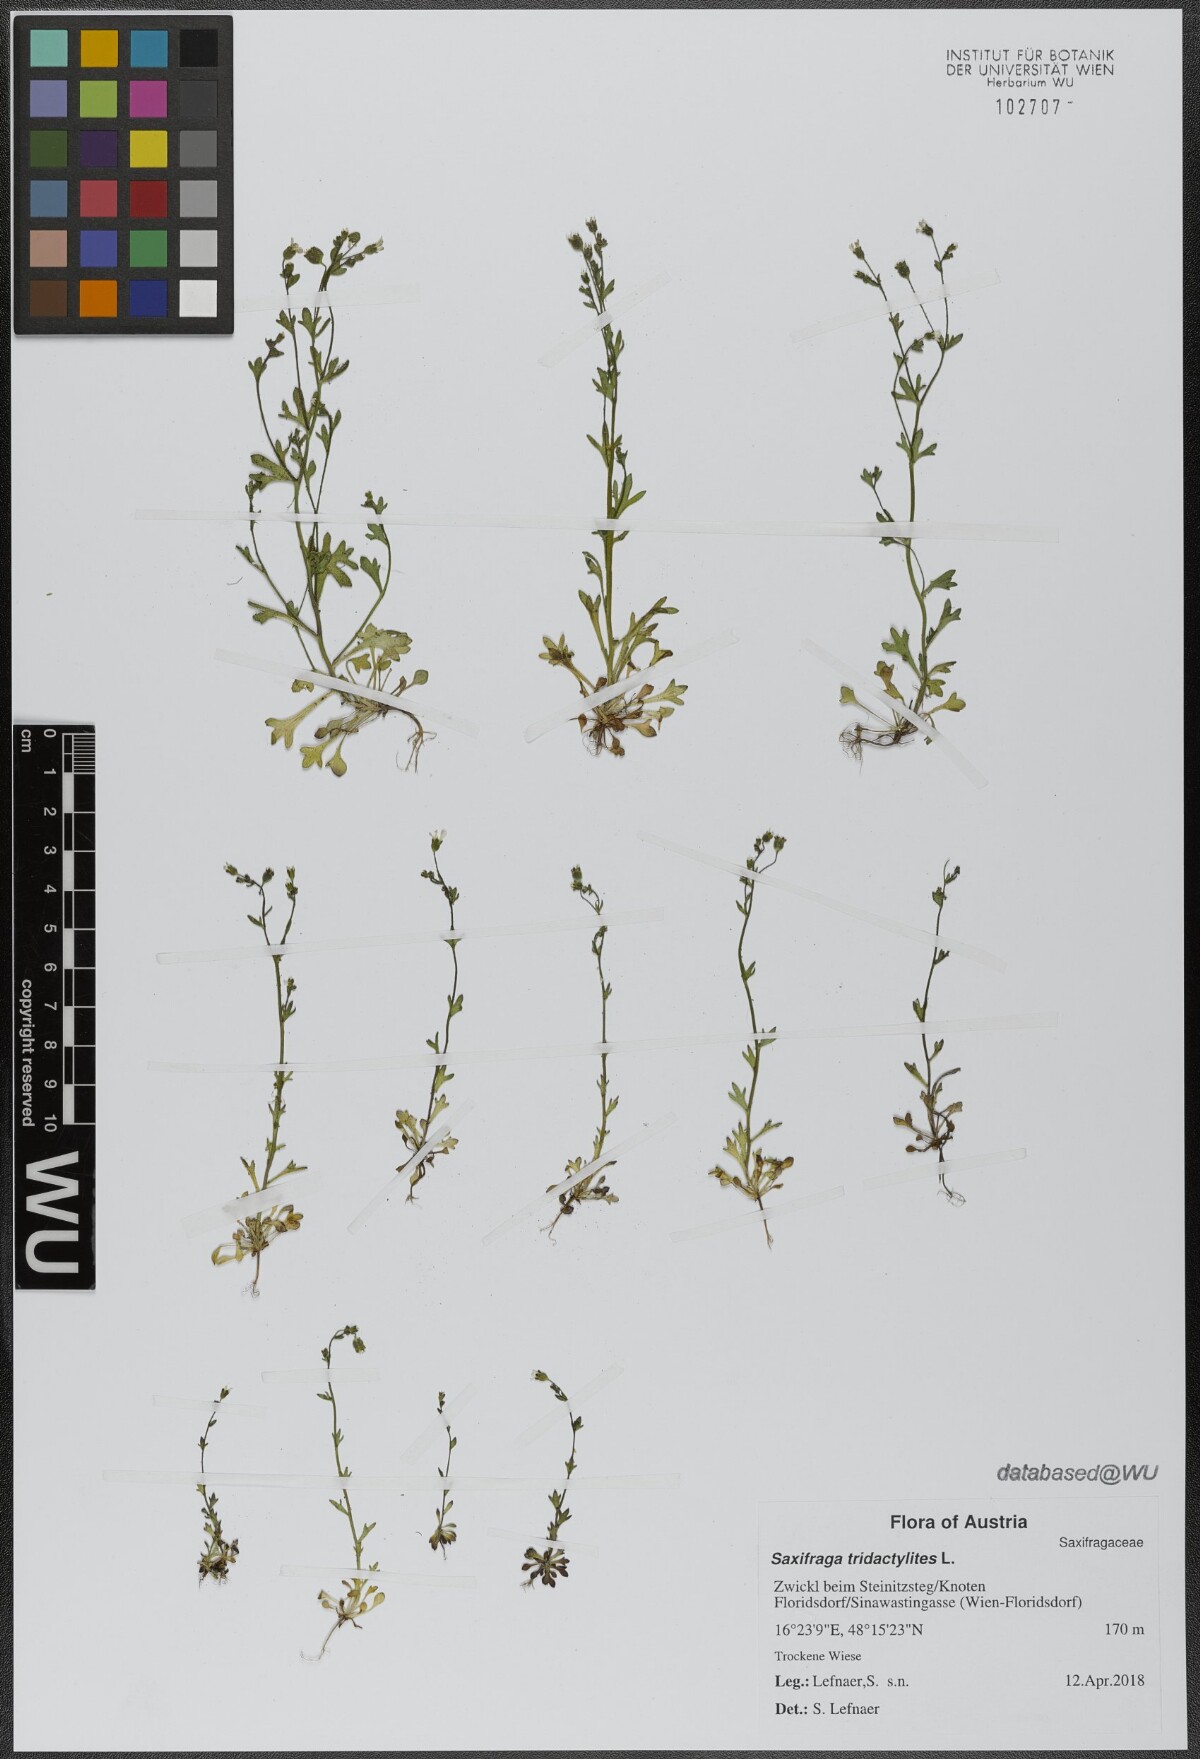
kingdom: Plantae
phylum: Tracheophyta
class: Magnoliopsida
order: Saxifragales
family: Saxifragaceae
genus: Saxifraga
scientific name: Saxifraga tridactylites
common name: Rue-leaved saxifrage
